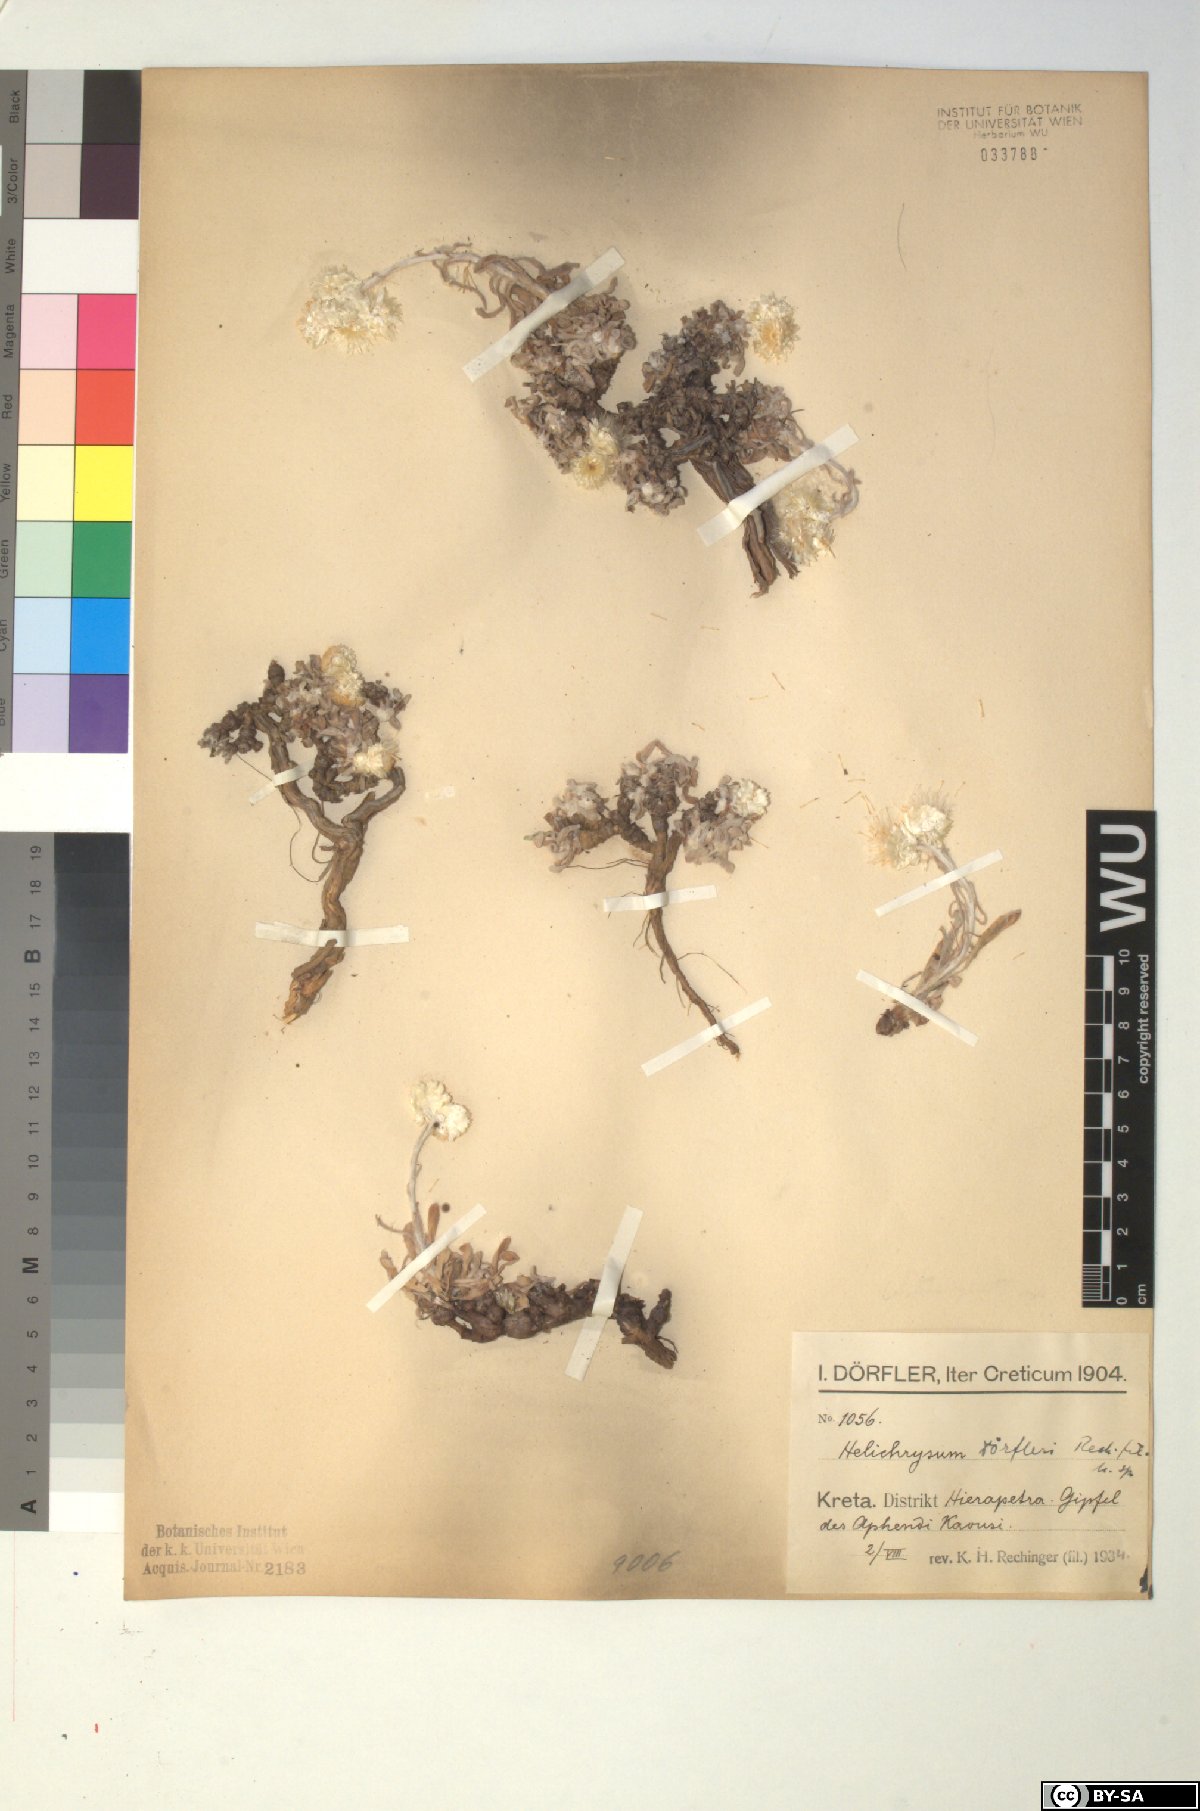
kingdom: Plantae
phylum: Tracheophyta
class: Magnoliopsida
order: Asterales
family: Asteraceae
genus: Helichrysum
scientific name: Helichrysum doerfleri
